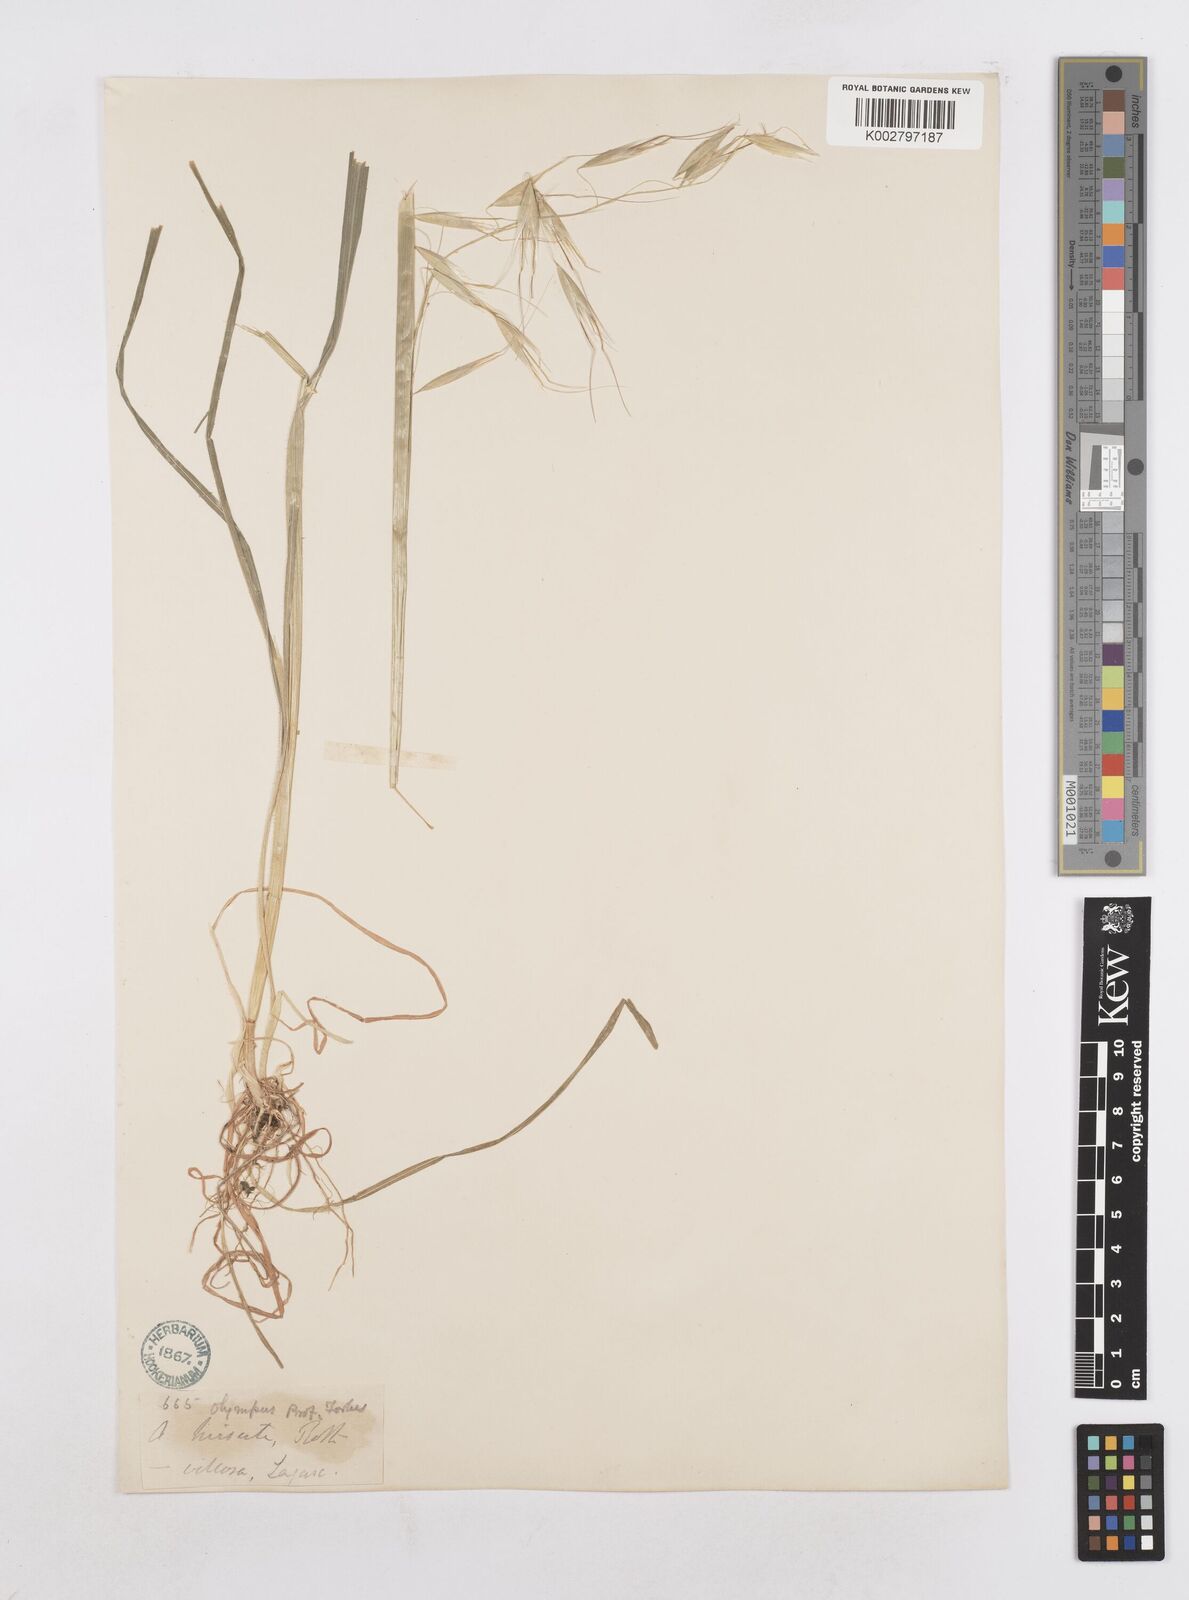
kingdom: Plantae
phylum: Tracheophyta
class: Liliopsida
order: Poales
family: Poaceae
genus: Avena
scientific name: Avena
